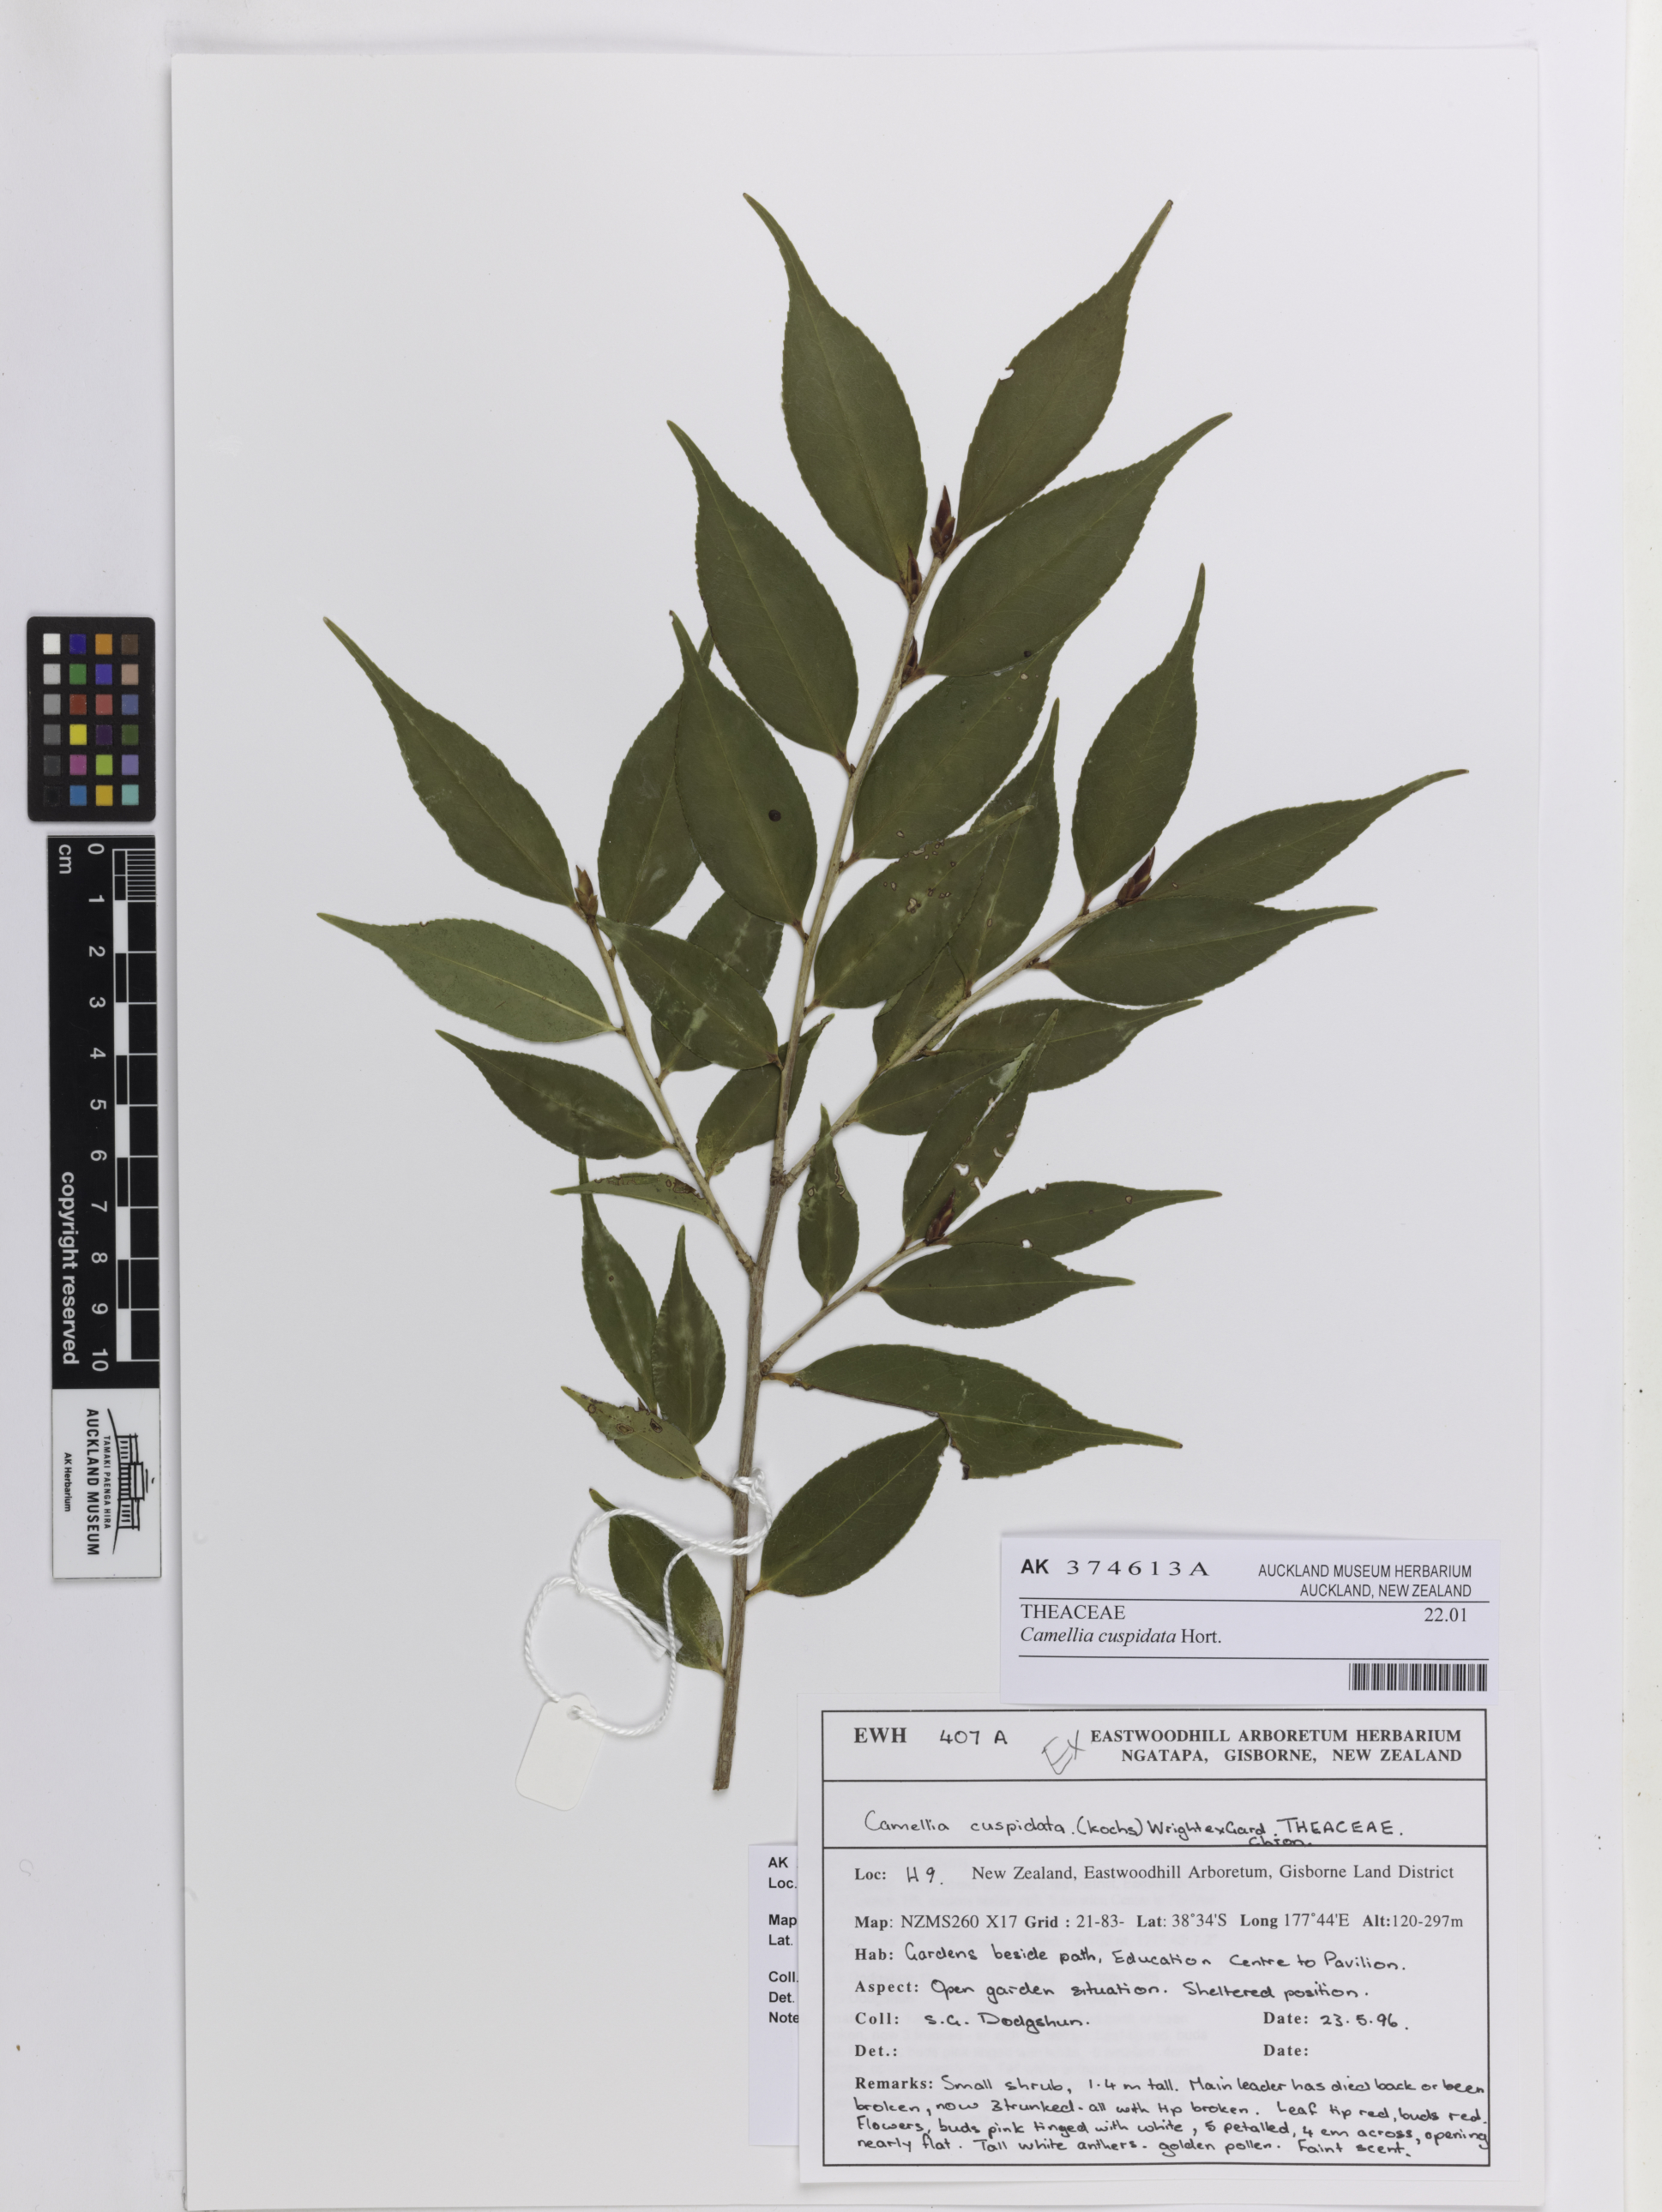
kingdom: Plantae
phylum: Tracheophyta
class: Magnoliopsida
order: Ericales
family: Theaceae
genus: Camellia
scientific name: Camellia cuspidata
